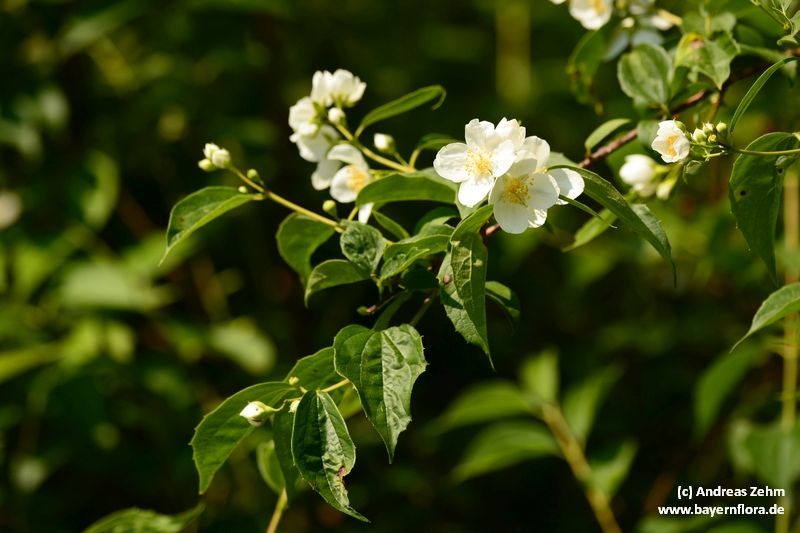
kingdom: Plantae
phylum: Tracheophyta
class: Magnoliopsida
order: Cornales
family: Hydrangeaceae
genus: Philadelphus
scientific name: Philadelphus coronarius
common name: Mock orange
